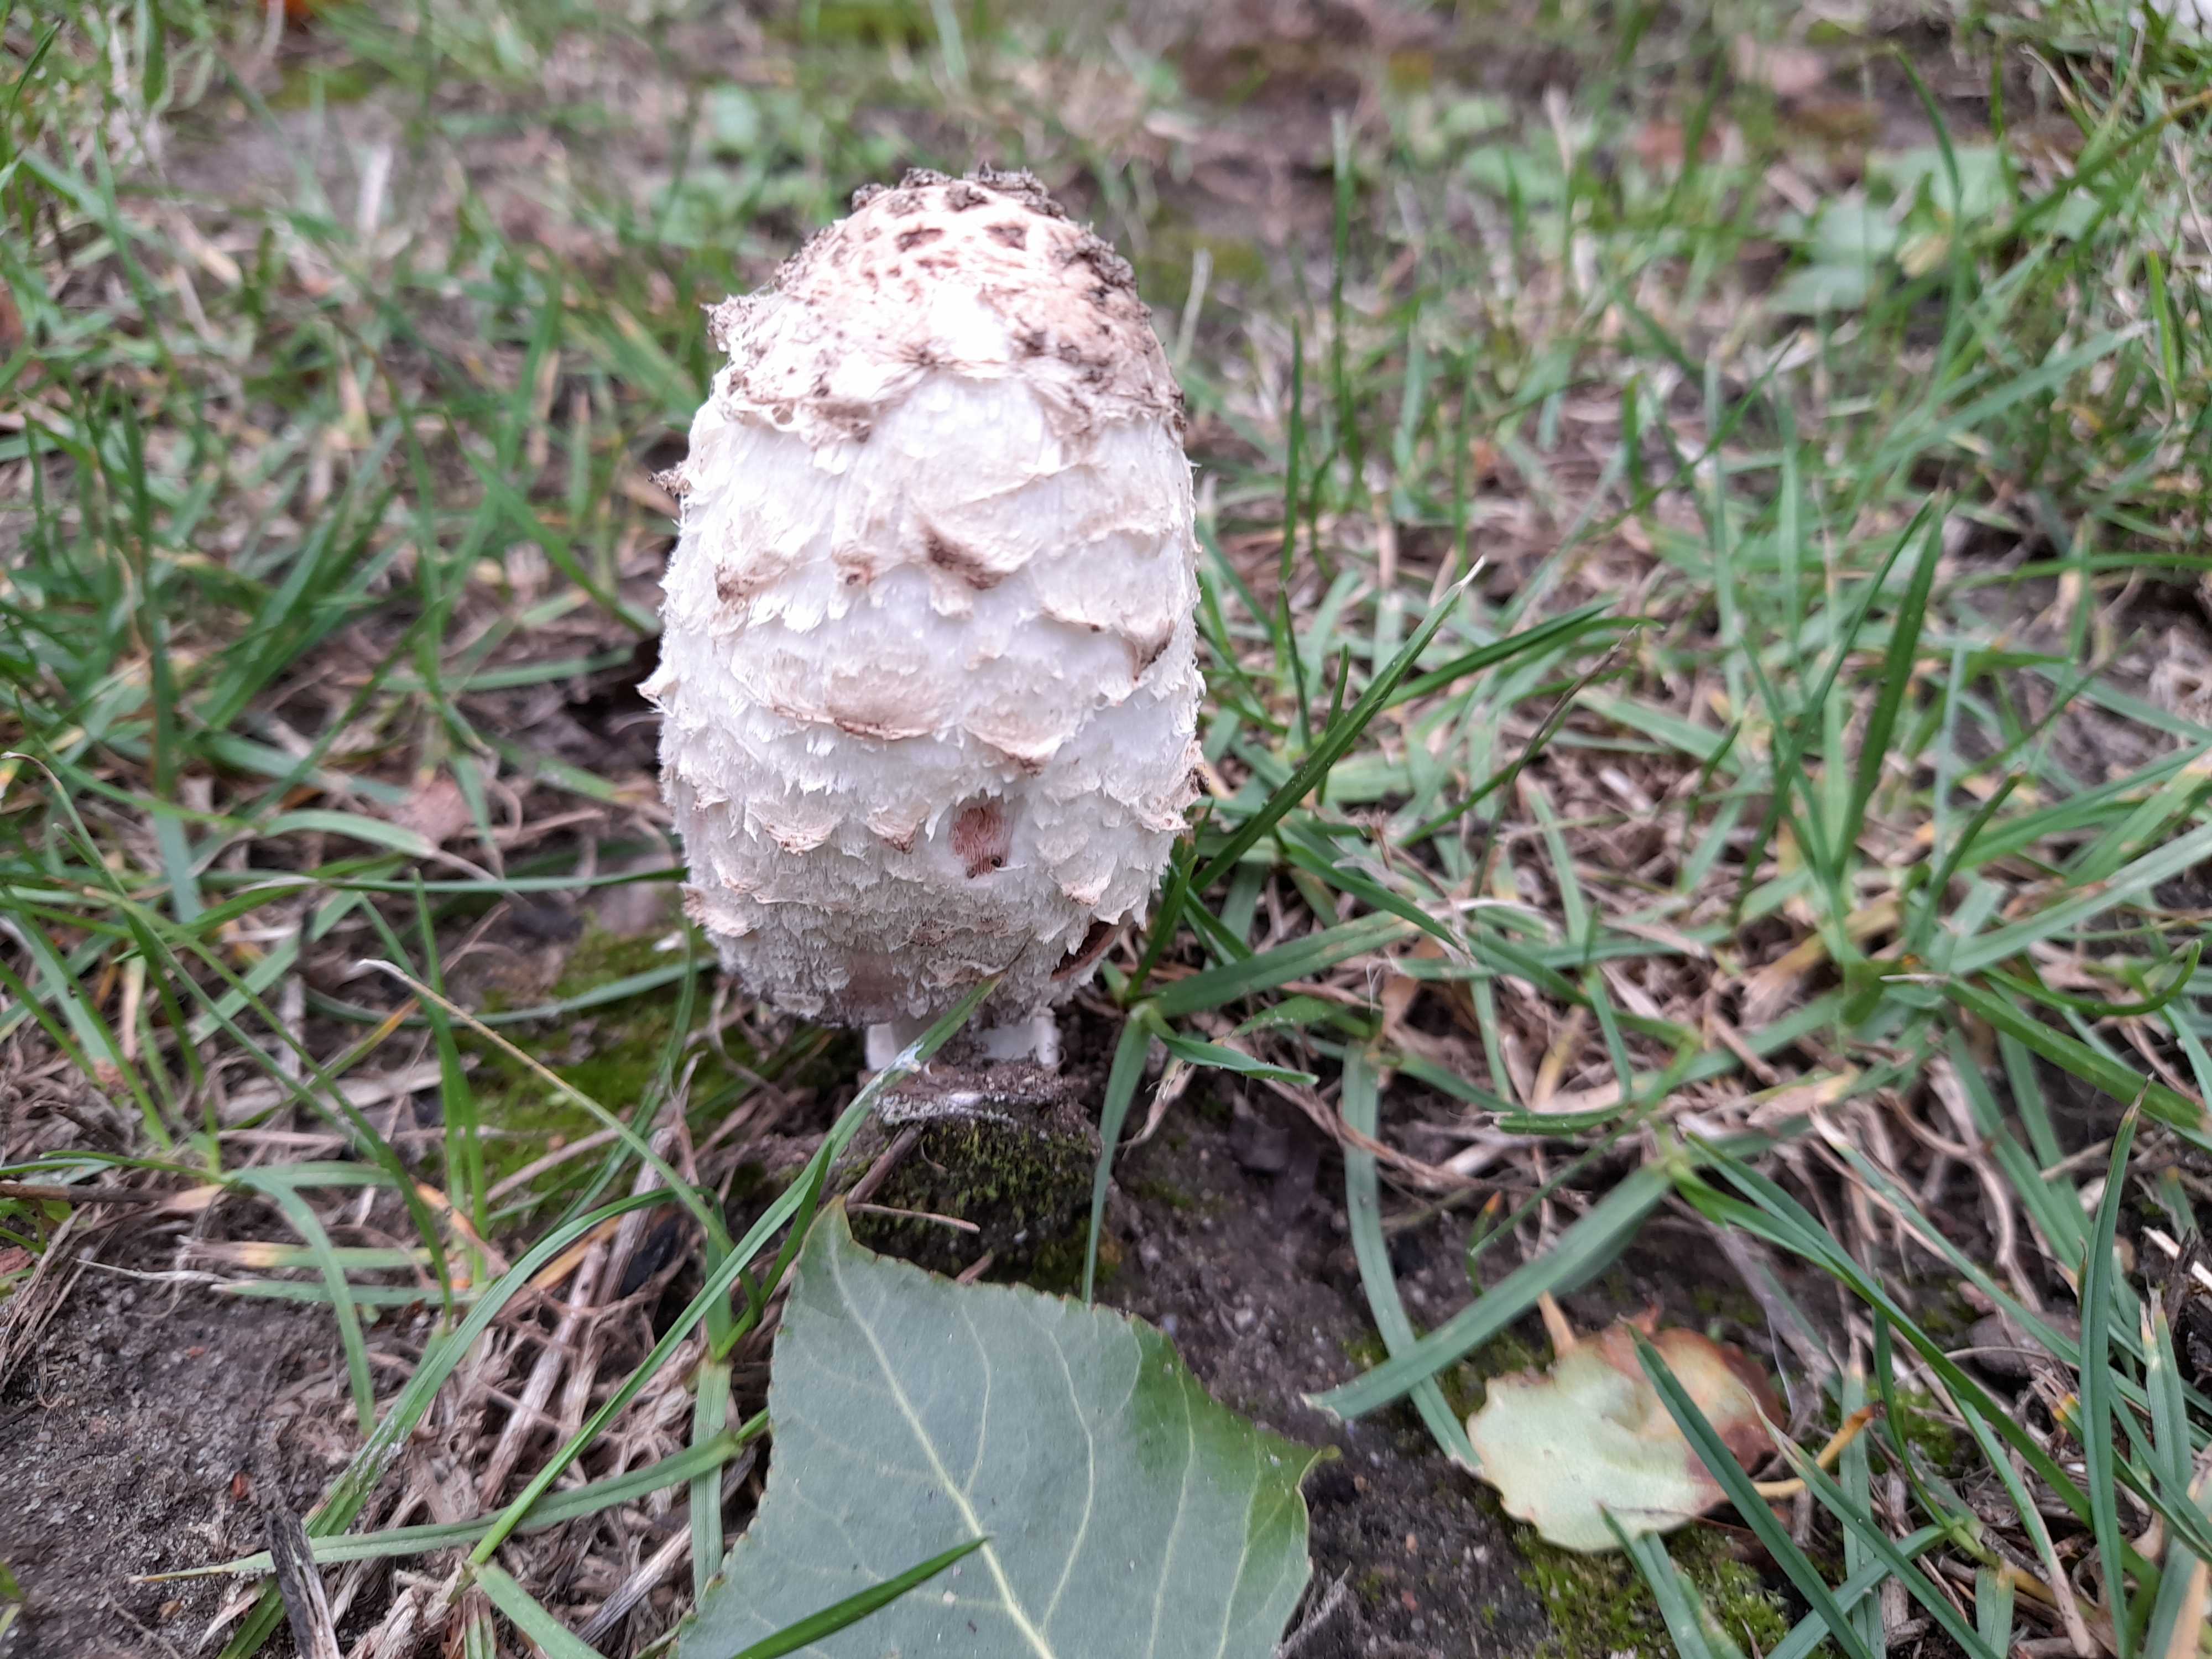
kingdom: Fungi
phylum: Basidiomycota
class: Agaricomycetes
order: Agaricales
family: Agaricaceae
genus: Coprinus
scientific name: Coprinus comatus
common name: stor parykhat
